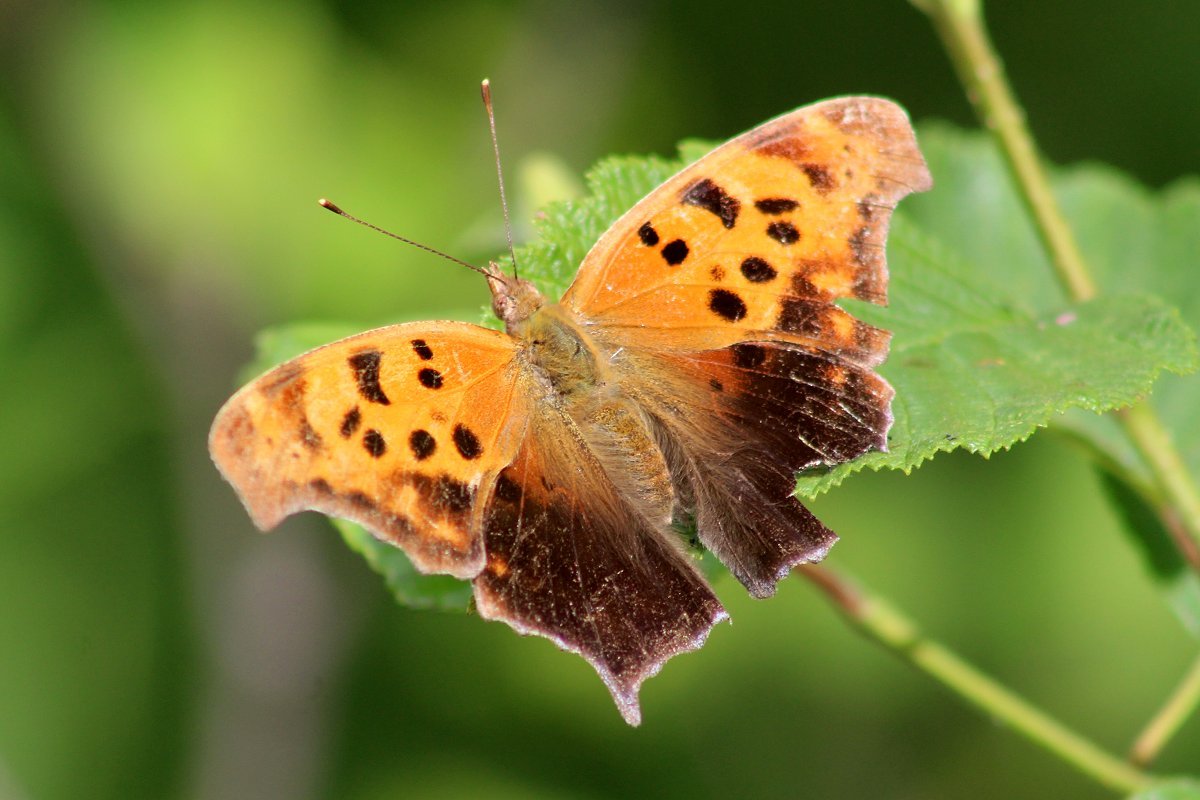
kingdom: Animalia
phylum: Arthropoda
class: Insecta
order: Lepidoptera
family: Nymphalidae
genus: Polygonia
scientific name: Polygonia interrogationis
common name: Question Mark
